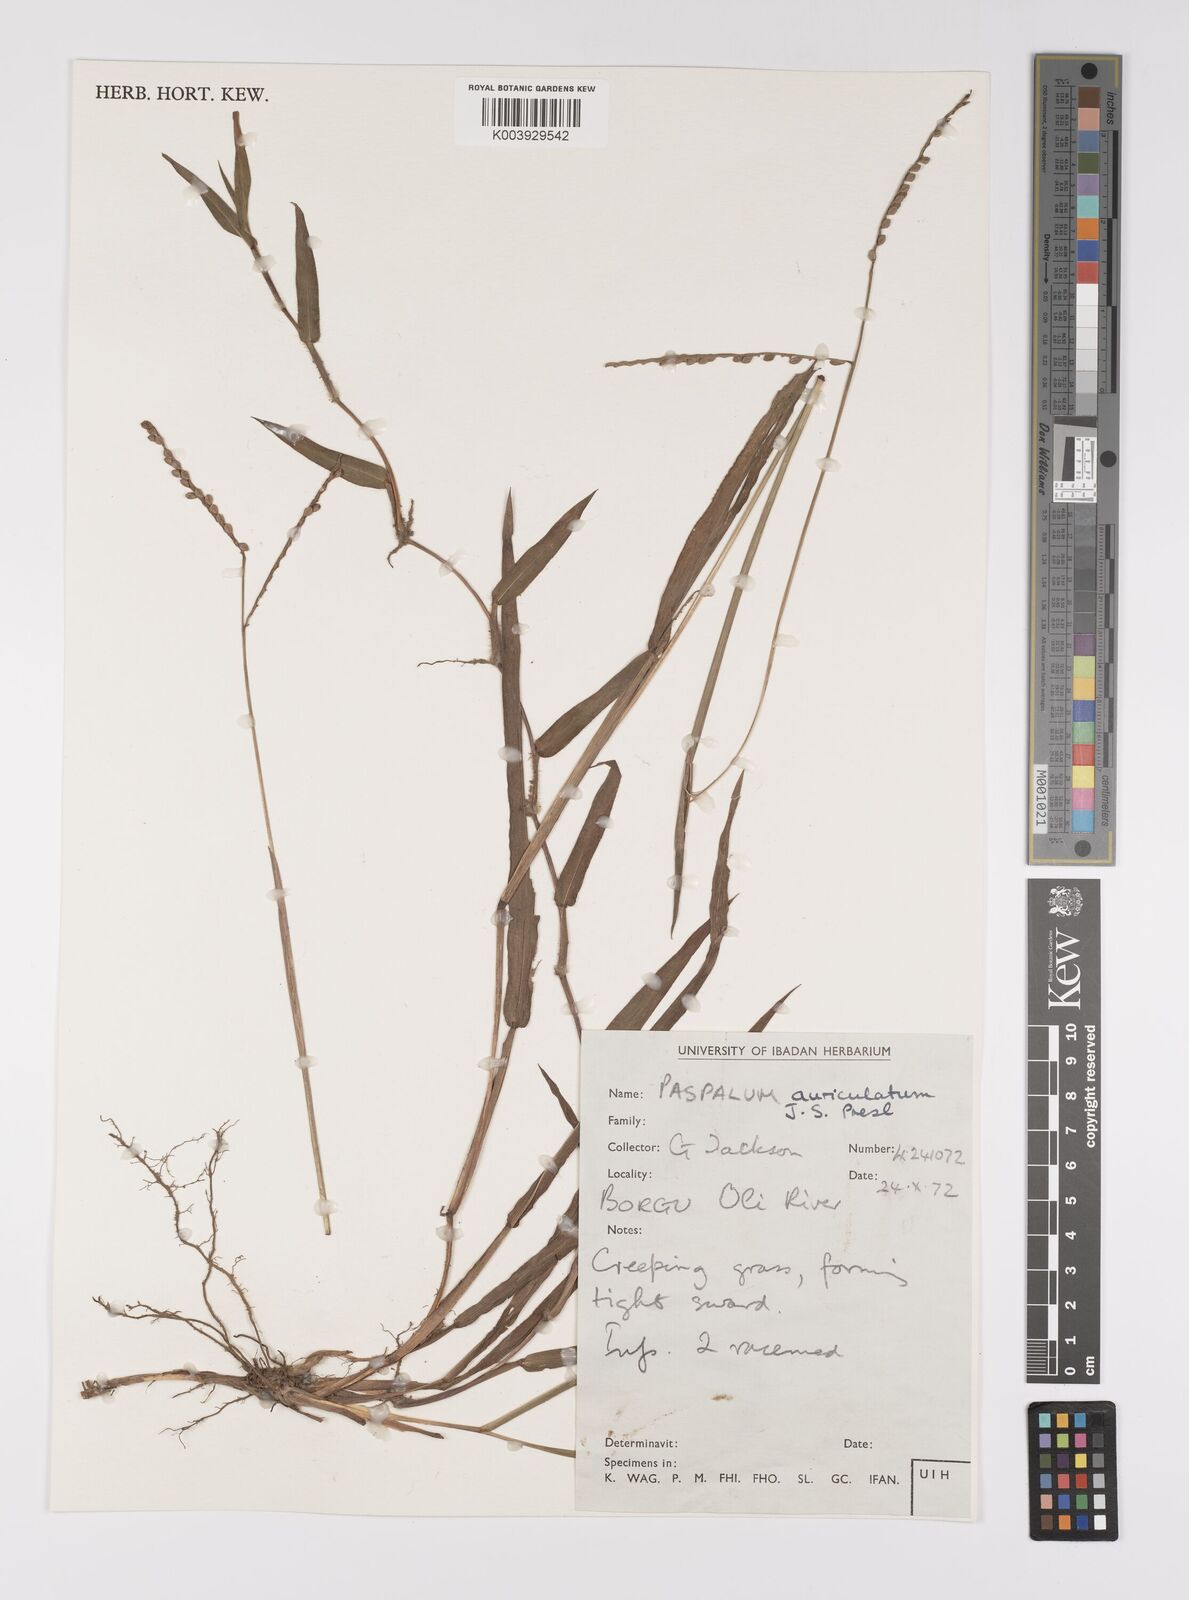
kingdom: Plantae
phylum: Tracheophyta
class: Liliopsida
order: Poales
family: Poaceae
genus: Paspalum
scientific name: Paspalum scrobiculatum
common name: Kodo millet
